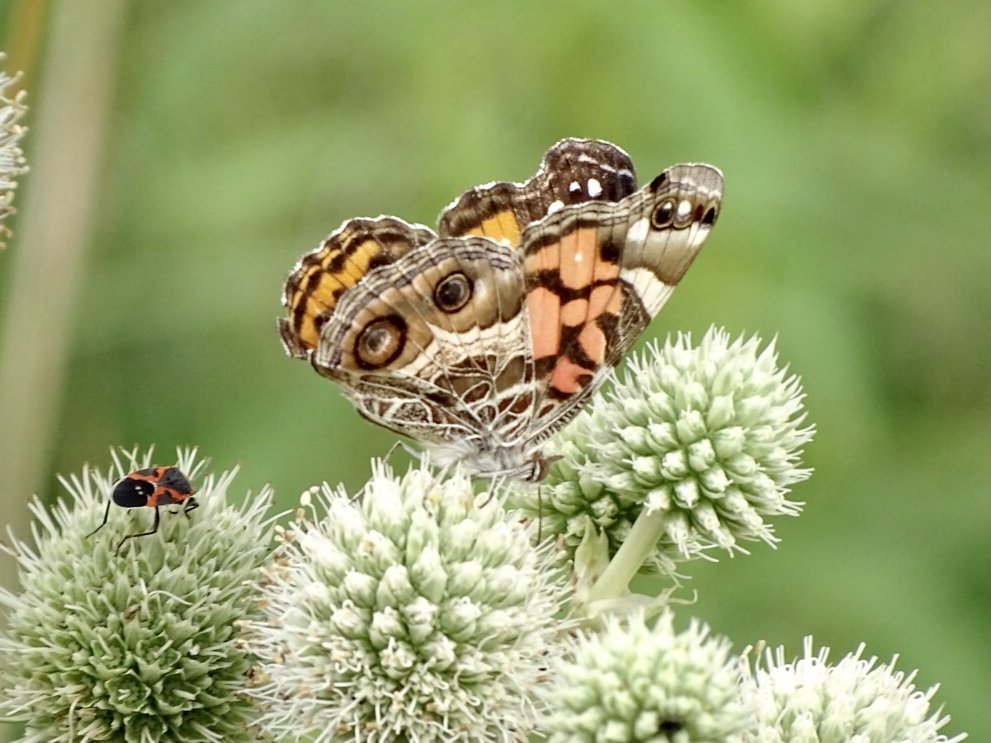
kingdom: Animalia
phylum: Arthropoda
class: Insecta
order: Lepidoptera
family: Nymphalidae
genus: Vanessa
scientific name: Vanessa virginiensis
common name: American Lady
